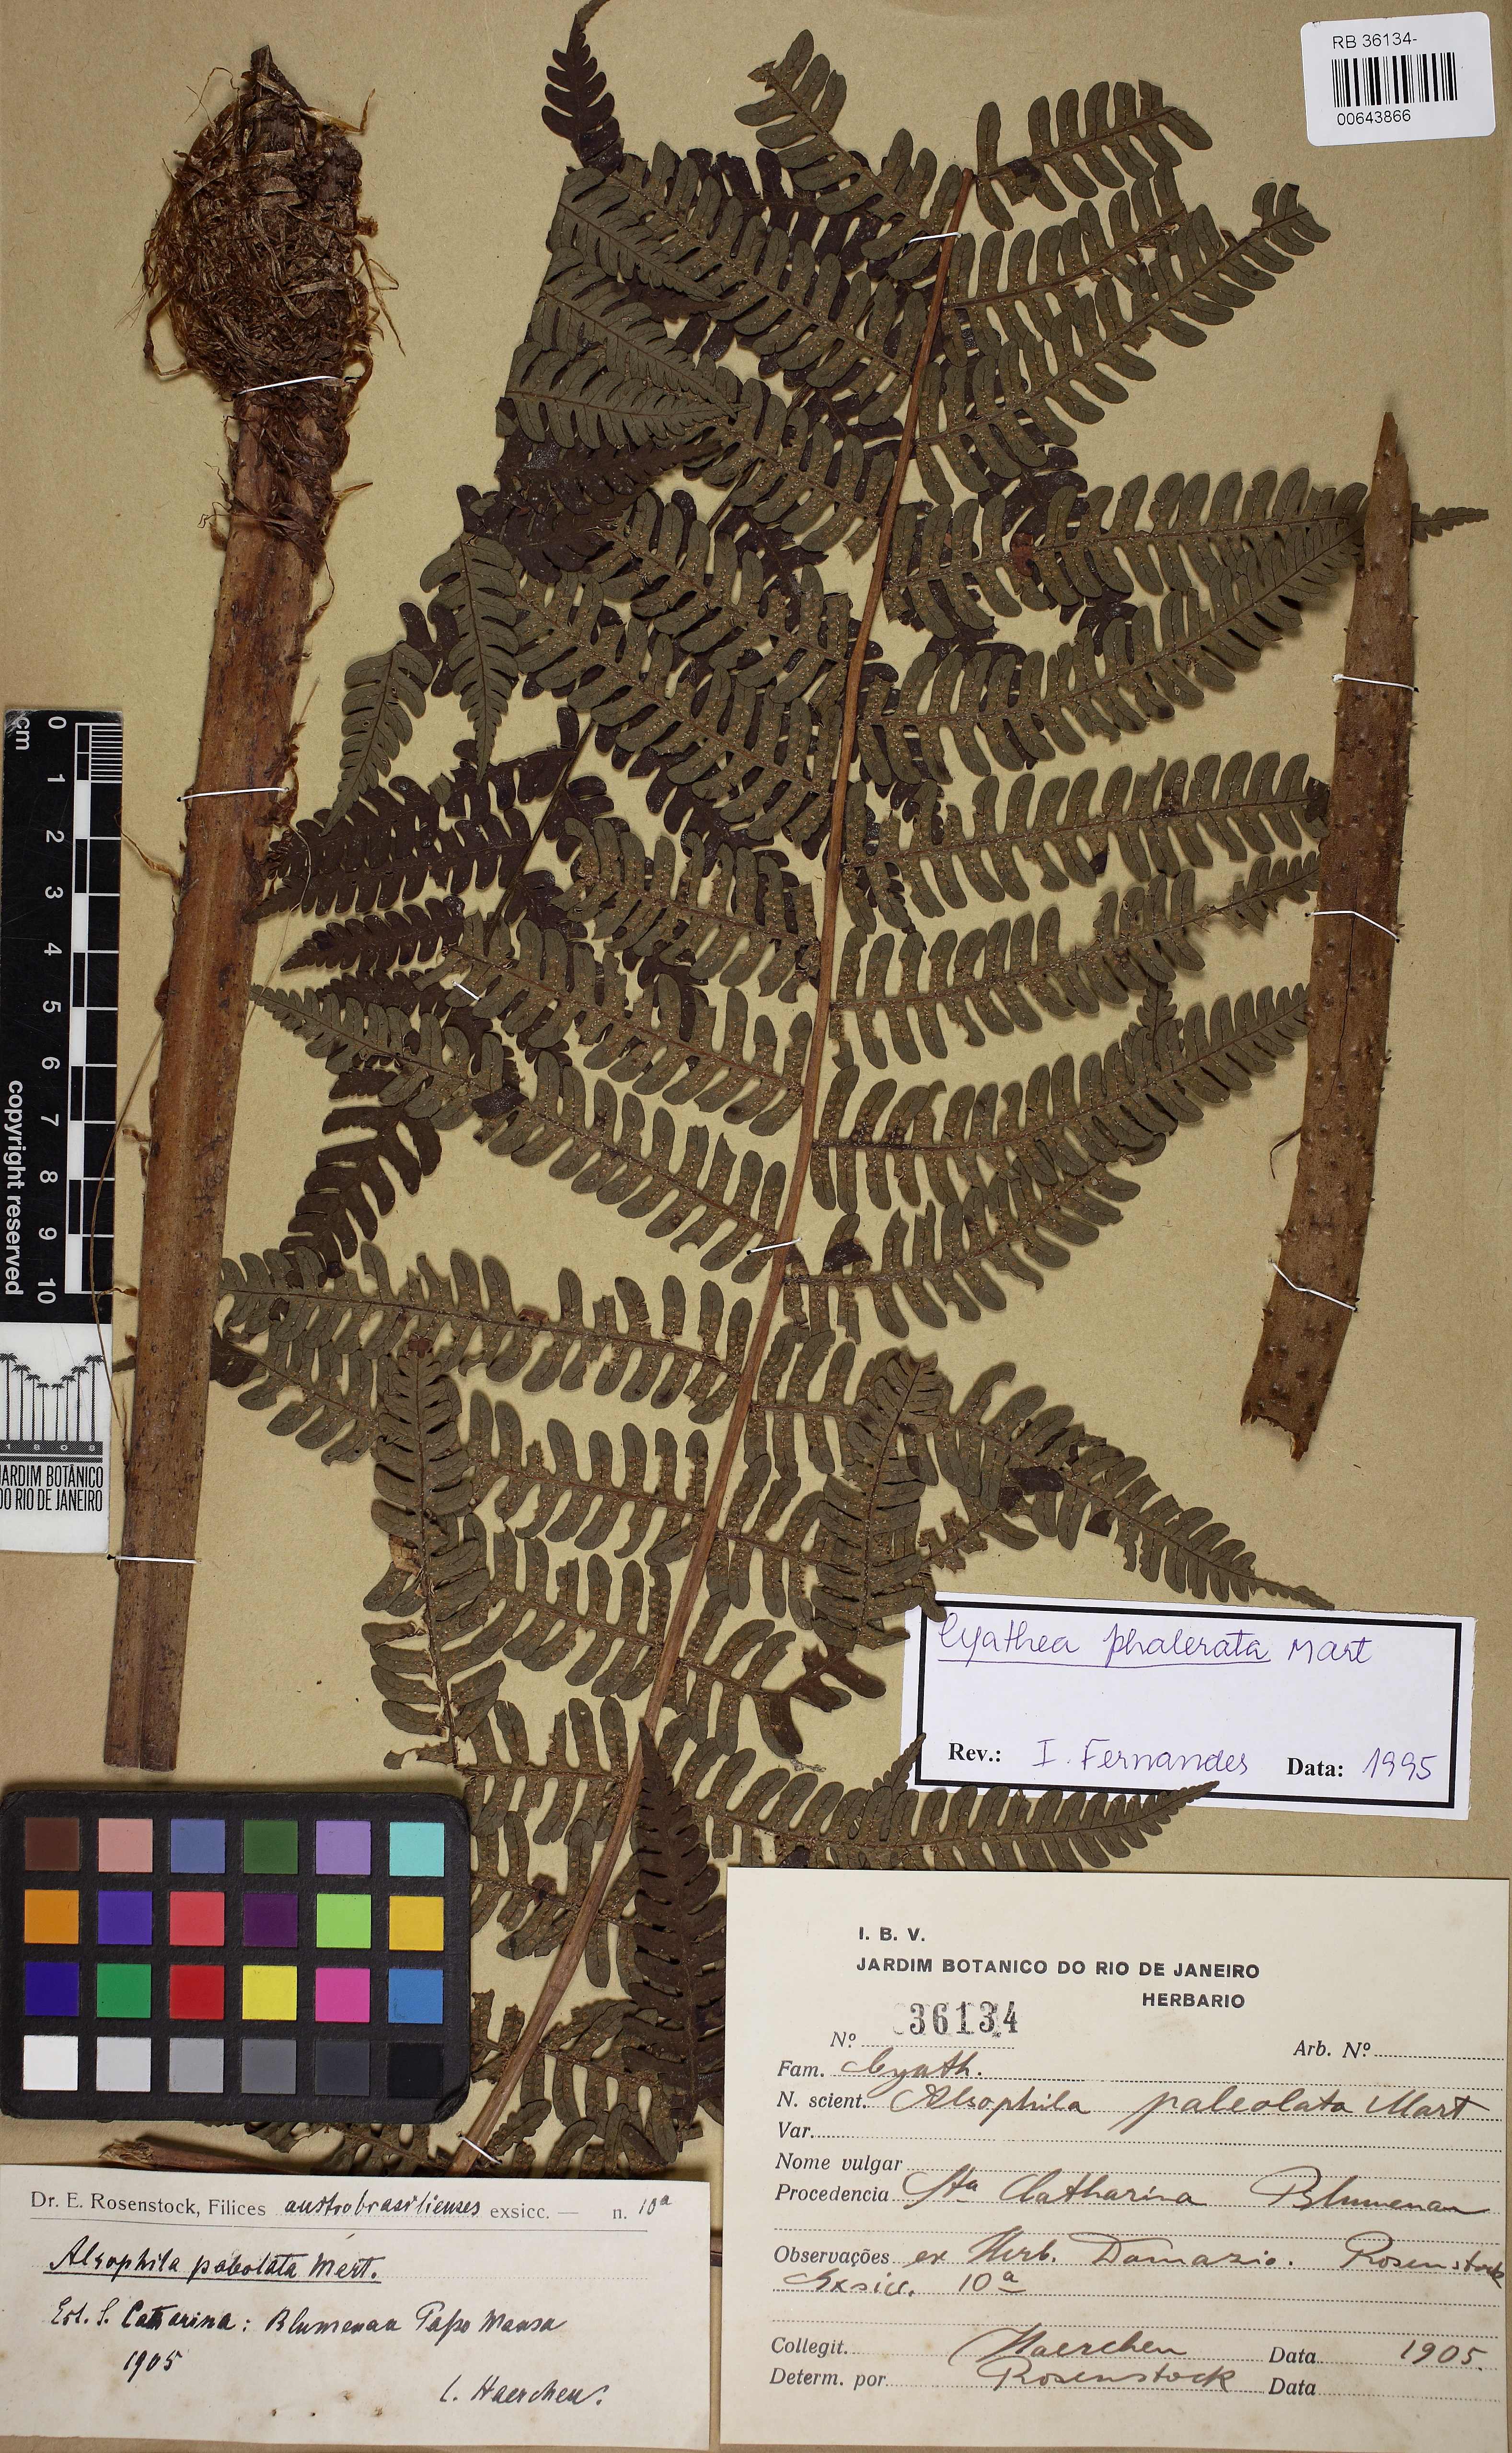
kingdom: Plantae
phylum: Tracheophyta
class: Polypodiopsida
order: Cyatheales
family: Cyatheaceae
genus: Cyathea
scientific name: Cyathea phalerata
